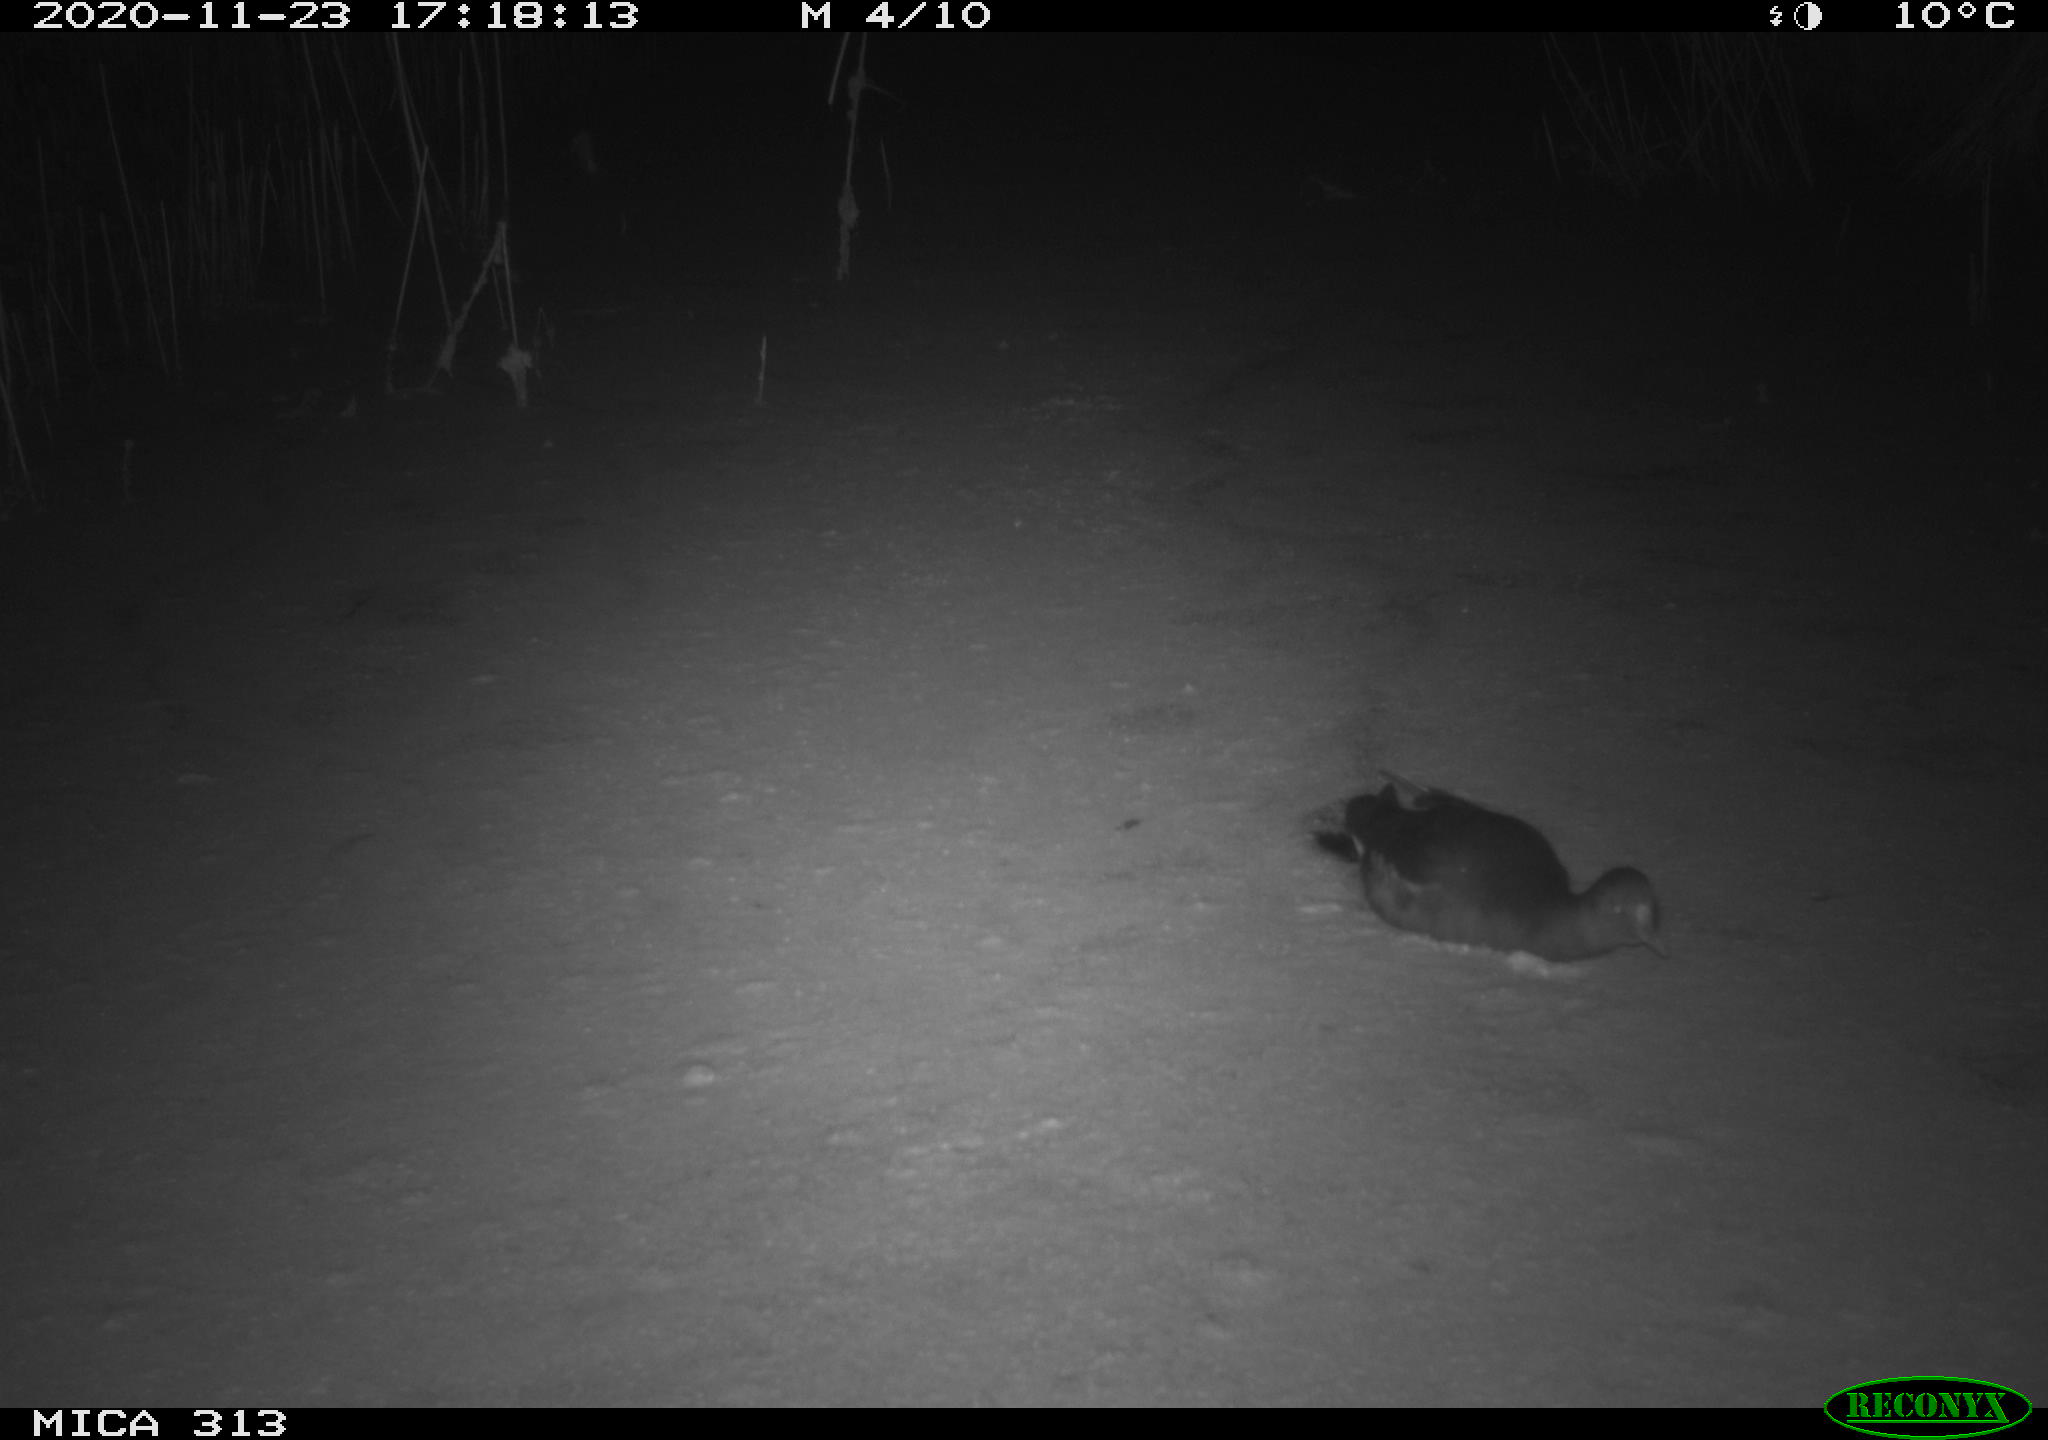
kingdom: Animalia
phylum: Chordata
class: Aves
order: Gruiformes
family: Rallidae
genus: Fulica
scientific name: Fulica atra
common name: Eurasian coot
